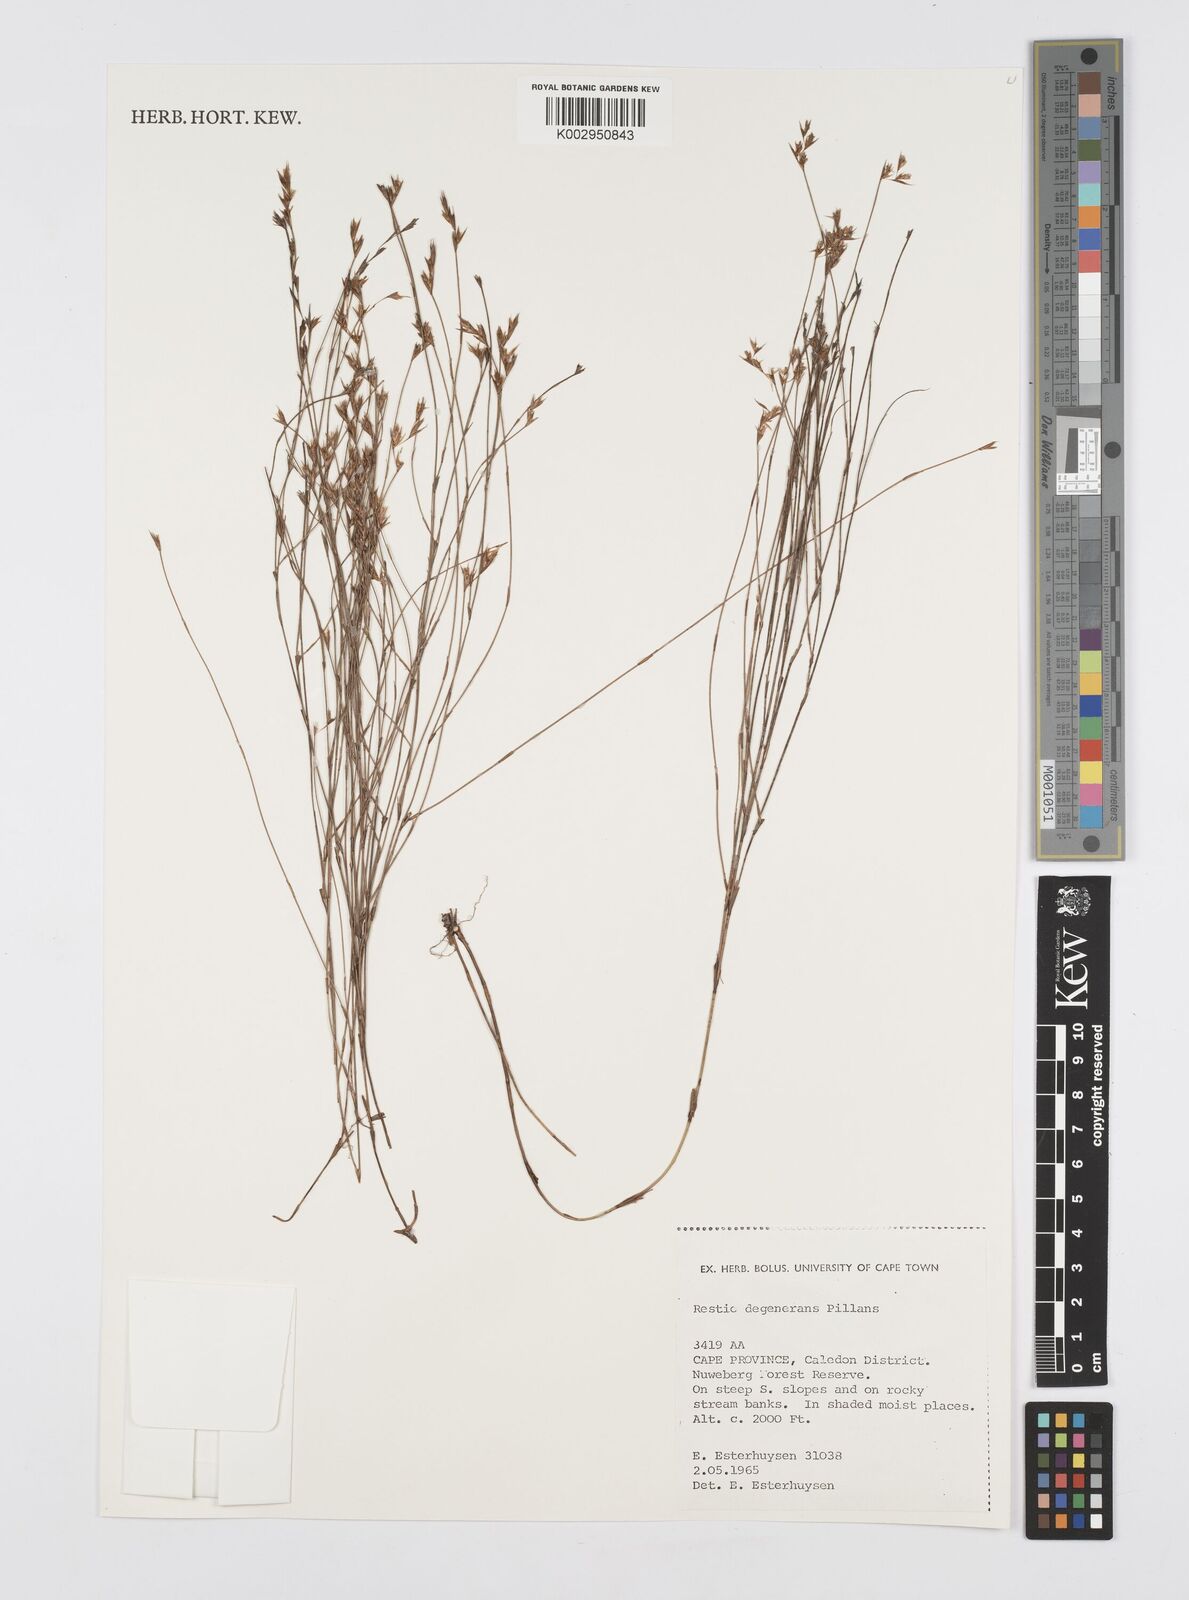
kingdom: Plantae
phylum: Tracheophyta
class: Liliopsida
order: Poales
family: Restionaceae
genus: Restio
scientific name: Restio degenerans
